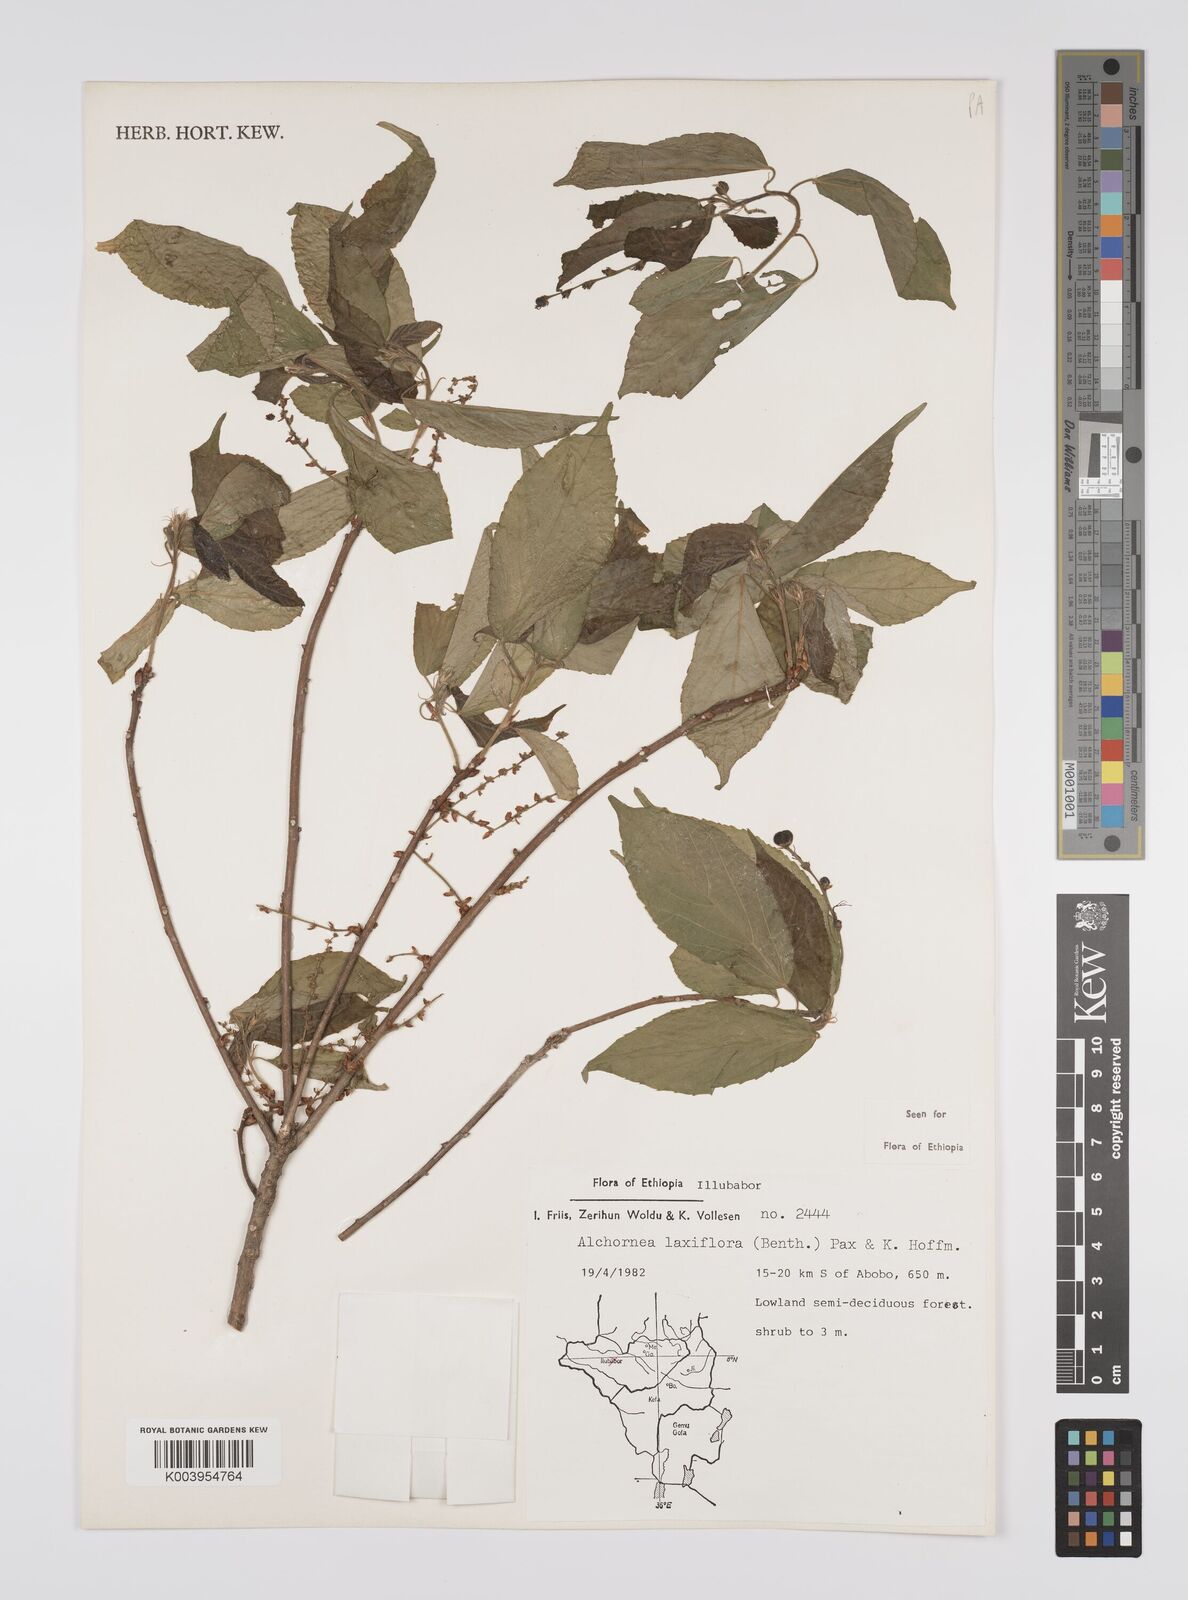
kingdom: Plantae
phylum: Tracheophyta
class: Magnoliopsida
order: Malpighiales
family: Euphorbiaceae
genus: Alchornea
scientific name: Alchornea laxiflora
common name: Lowveld bead-string
